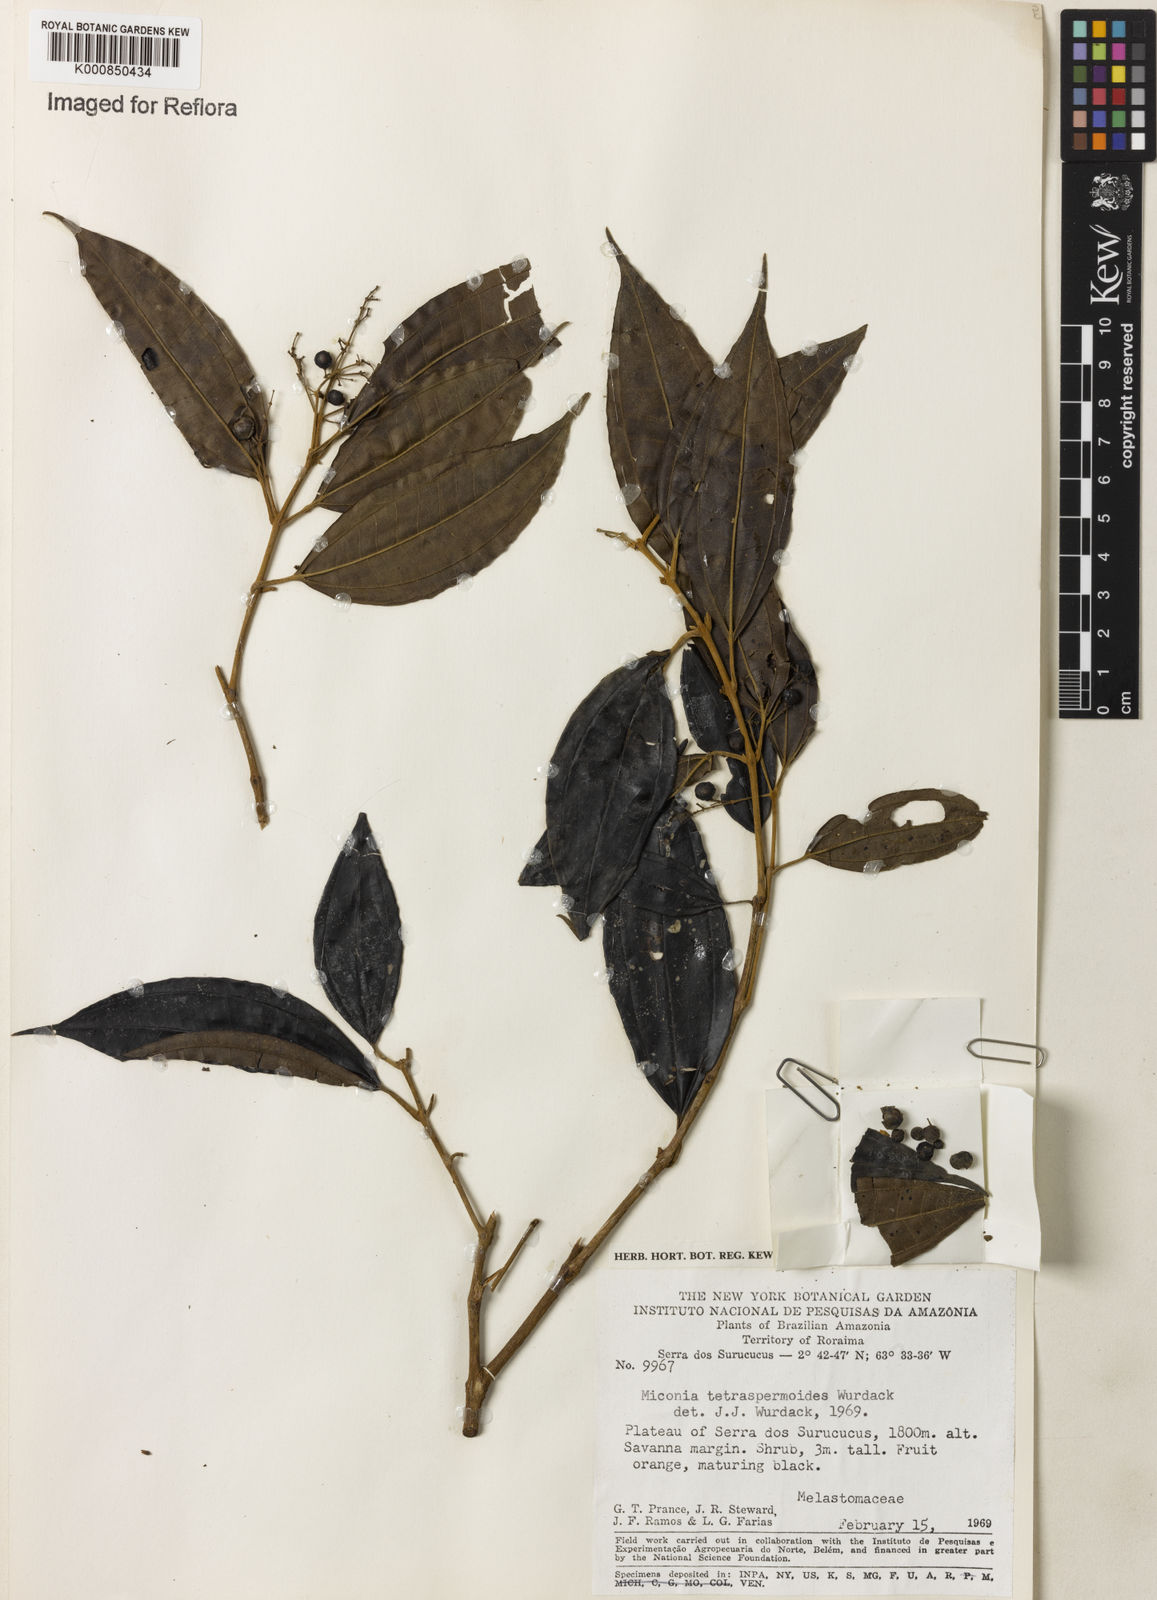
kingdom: Plantae
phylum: Tracheophyta
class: Magnoliopsida
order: Myrtales
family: Melastomataceae
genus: Miconia
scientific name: Miconia tetraspermoides
